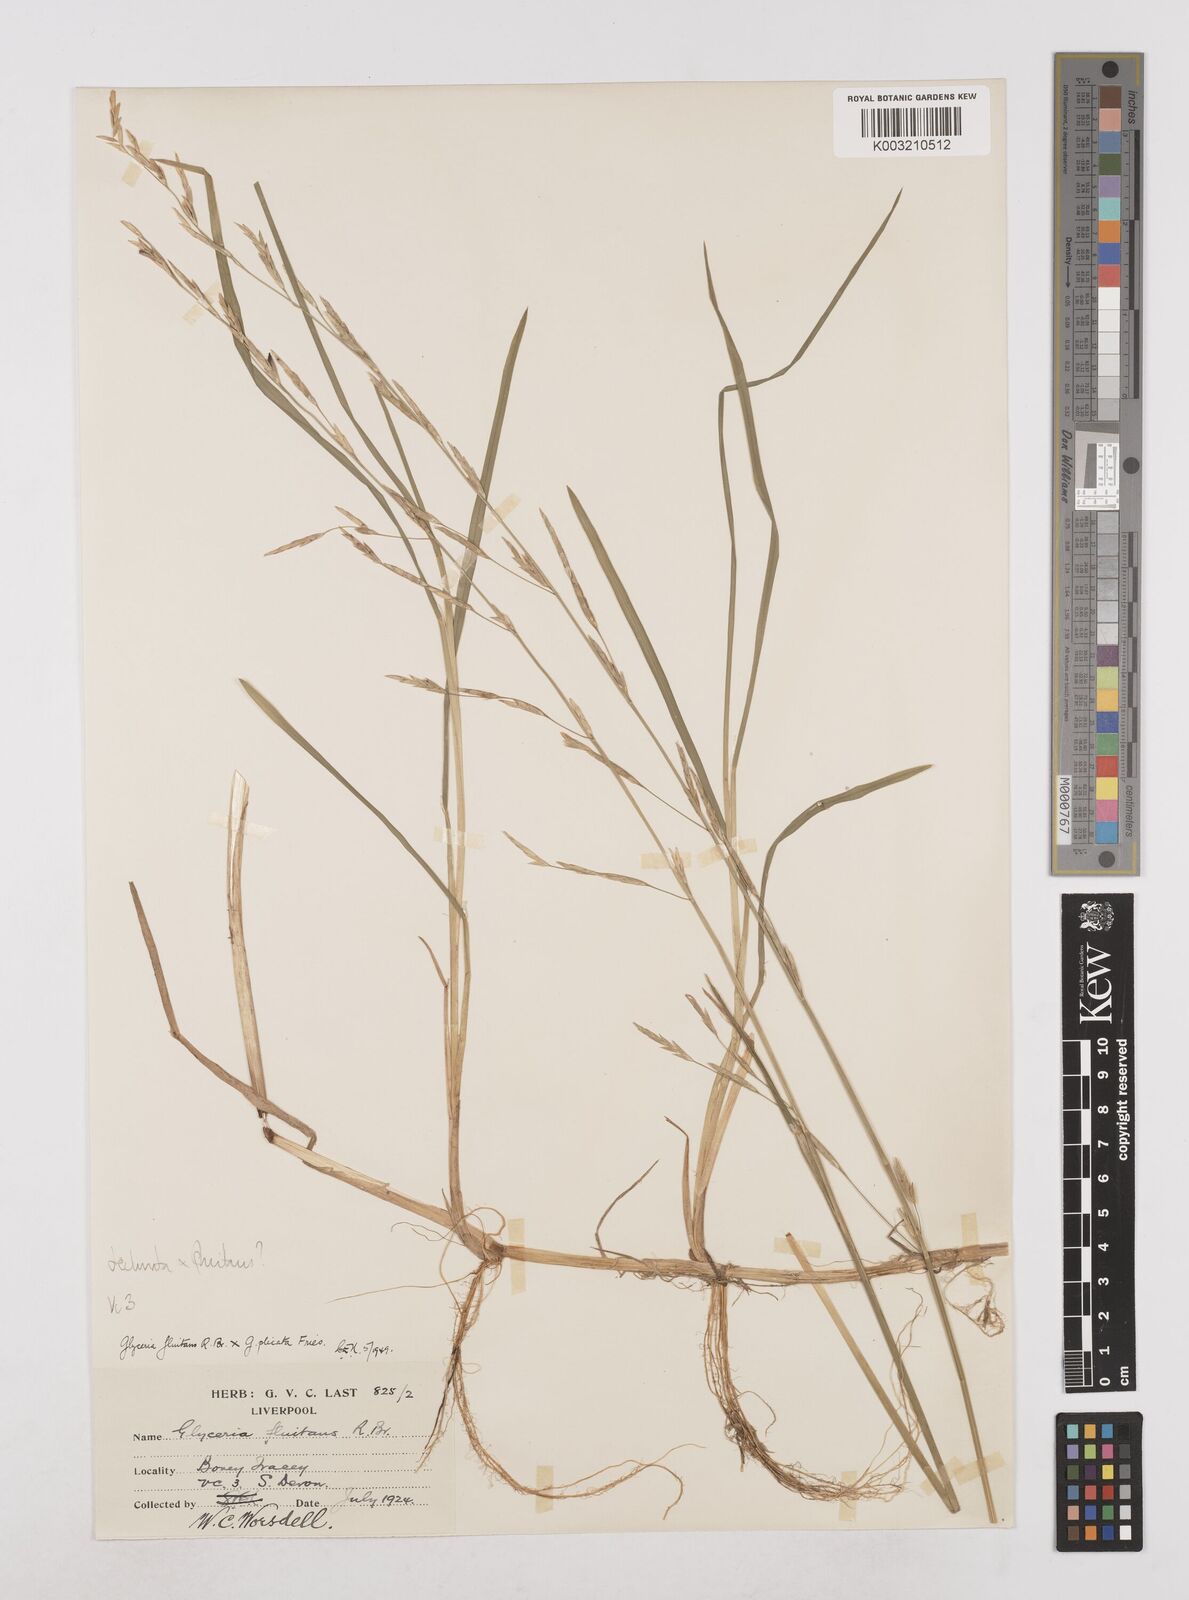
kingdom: Plantae
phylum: Tracheophyta
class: Liliopsida
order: Poales
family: Poaceae
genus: Glyceria
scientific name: Glyceria declinata
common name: Small sweet-grass
